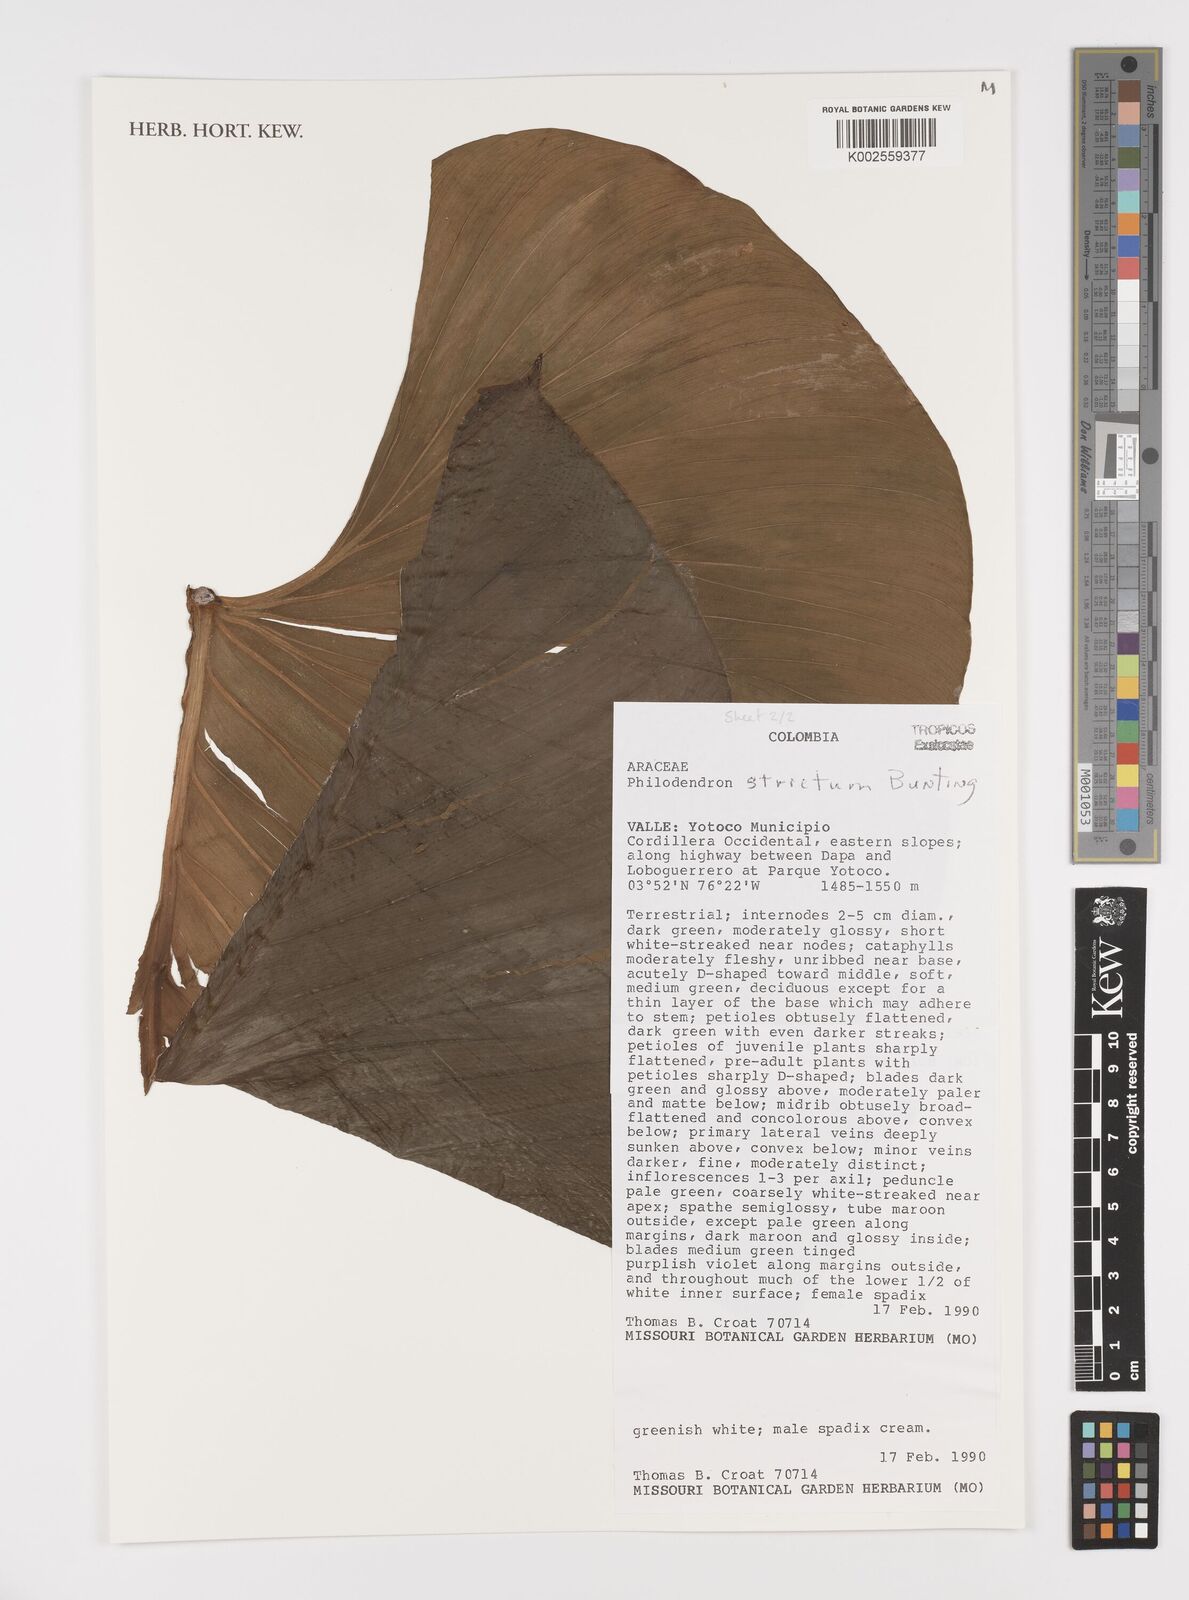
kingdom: Plantae
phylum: Tracheophyta
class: Liliopsida
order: Alismatales
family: Araceae
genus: Philodendron
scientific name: Philodendron strictum
